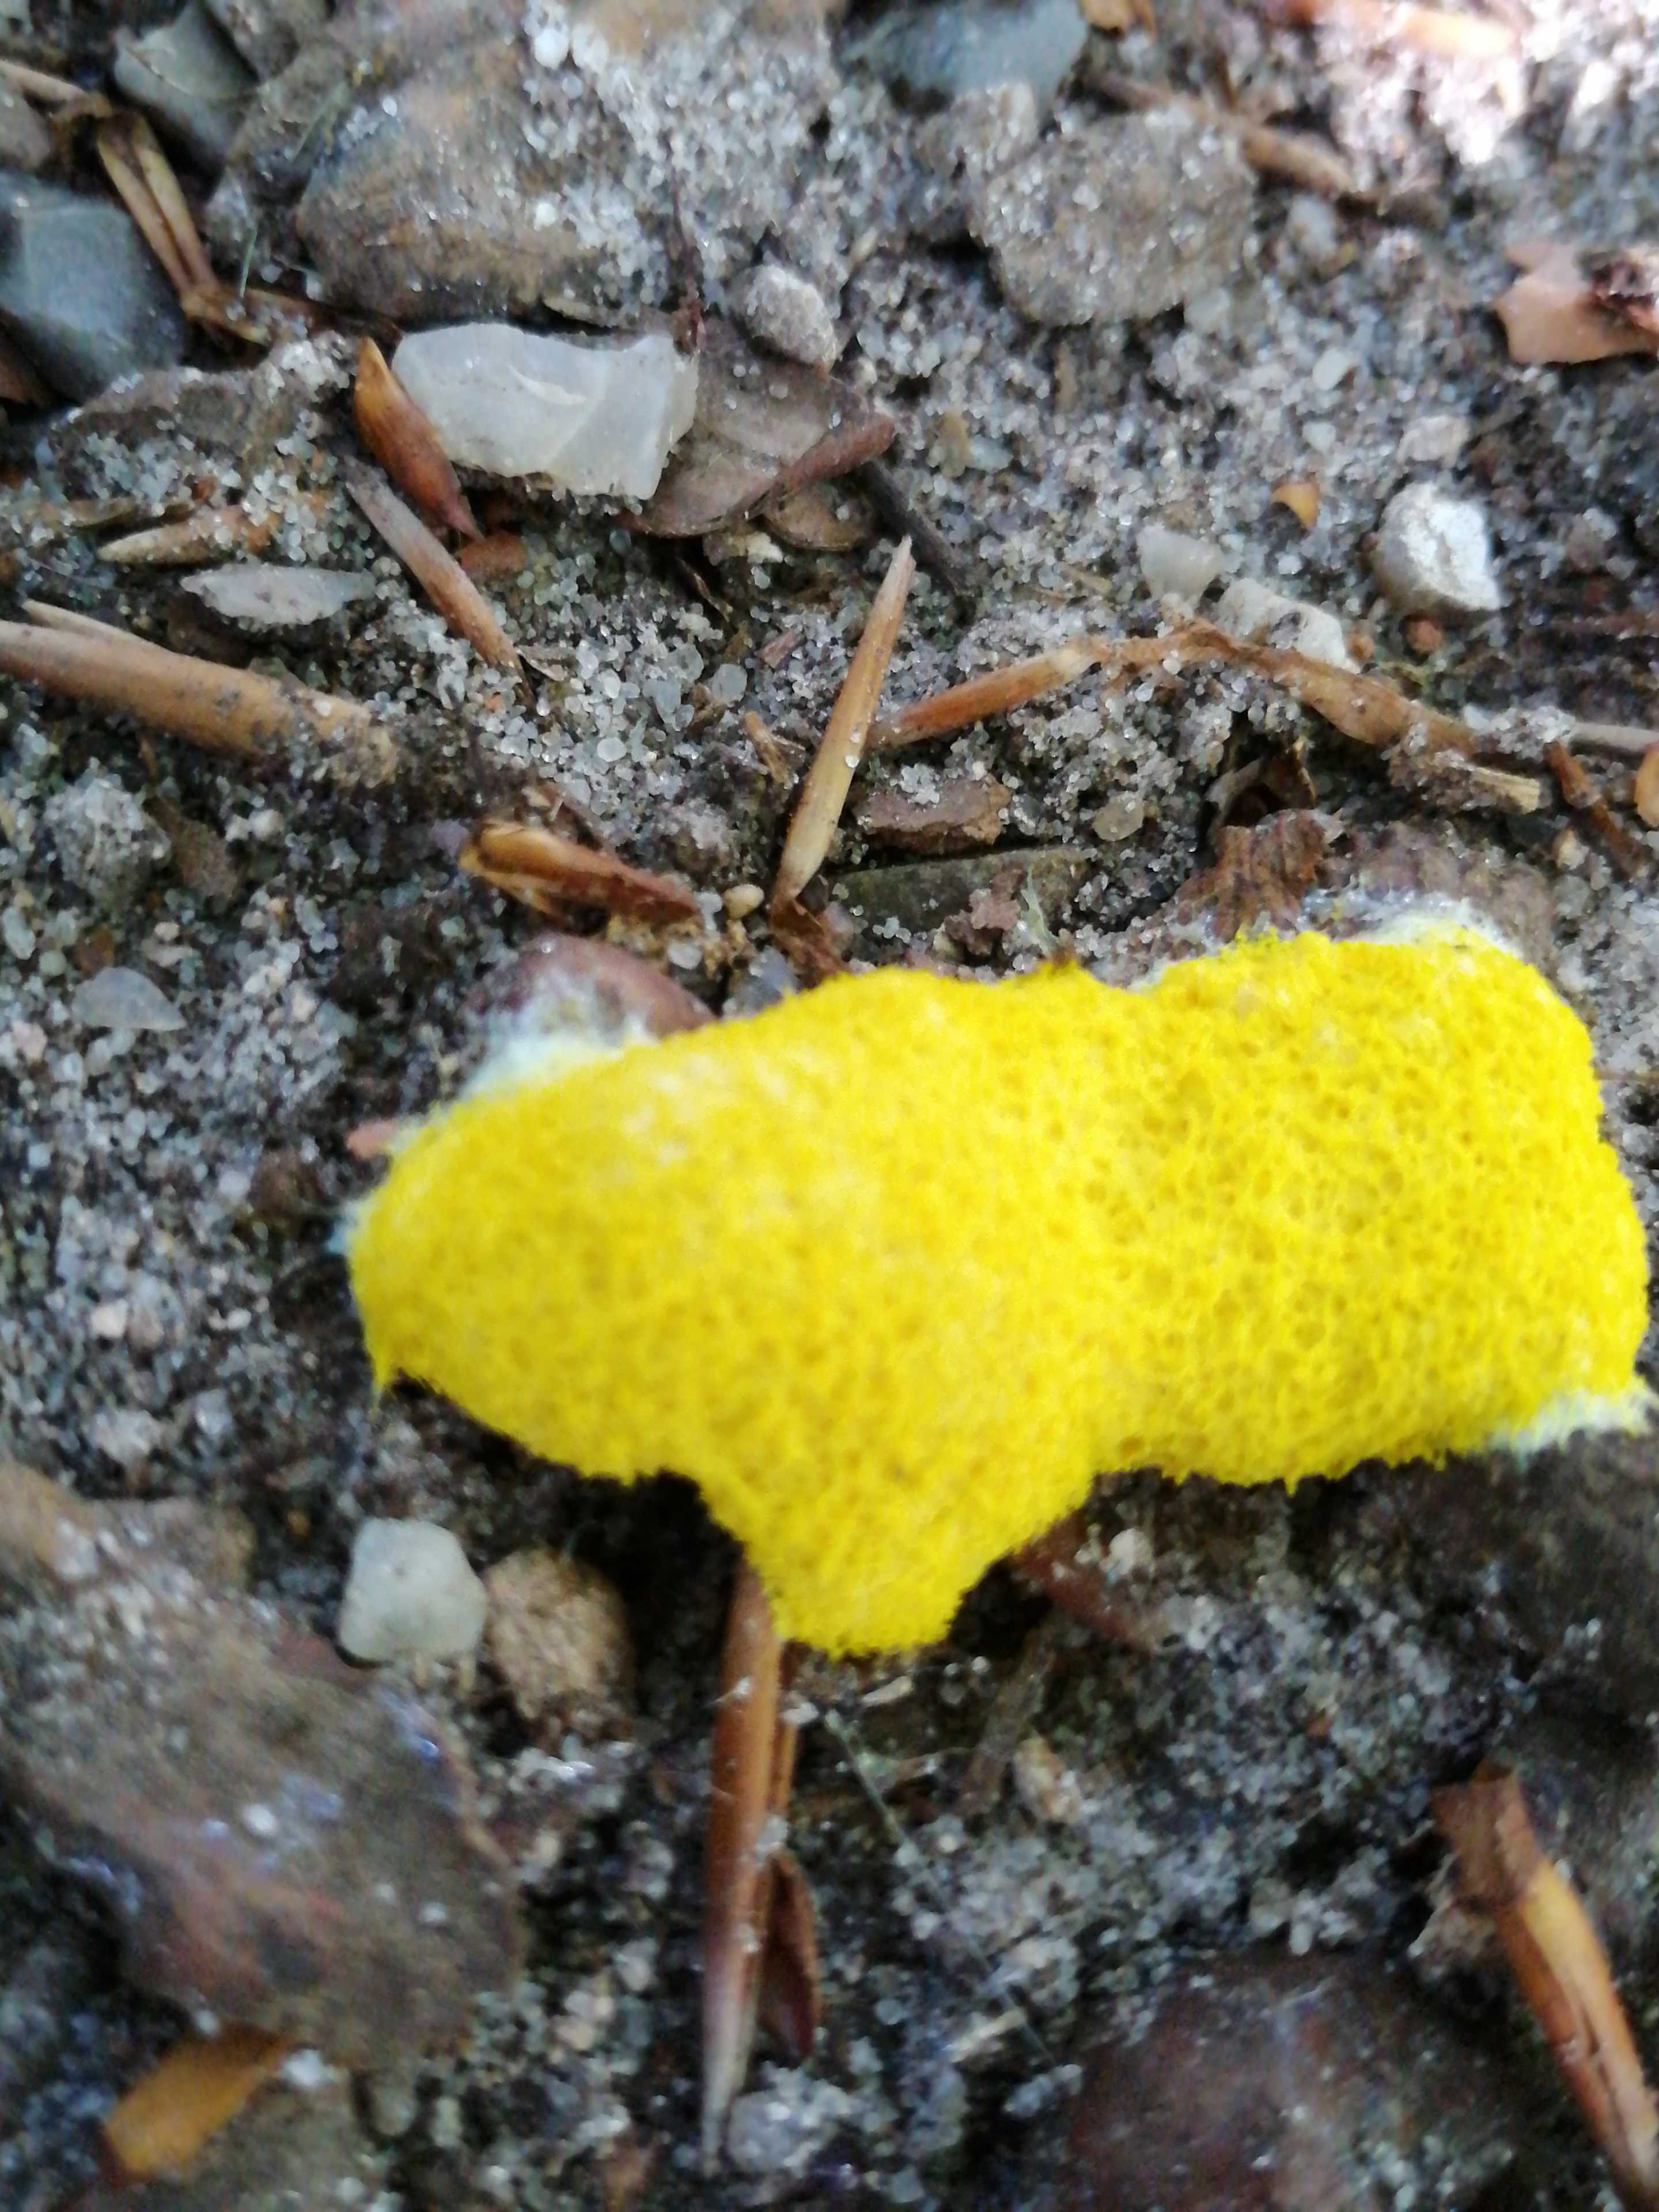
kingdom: Protozoa
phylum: Mycetozoa
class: Myxomycetes
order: Physarales
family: Physaraceae
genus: Fuligo
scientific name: Fuligo septica
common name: gul troldsmør
